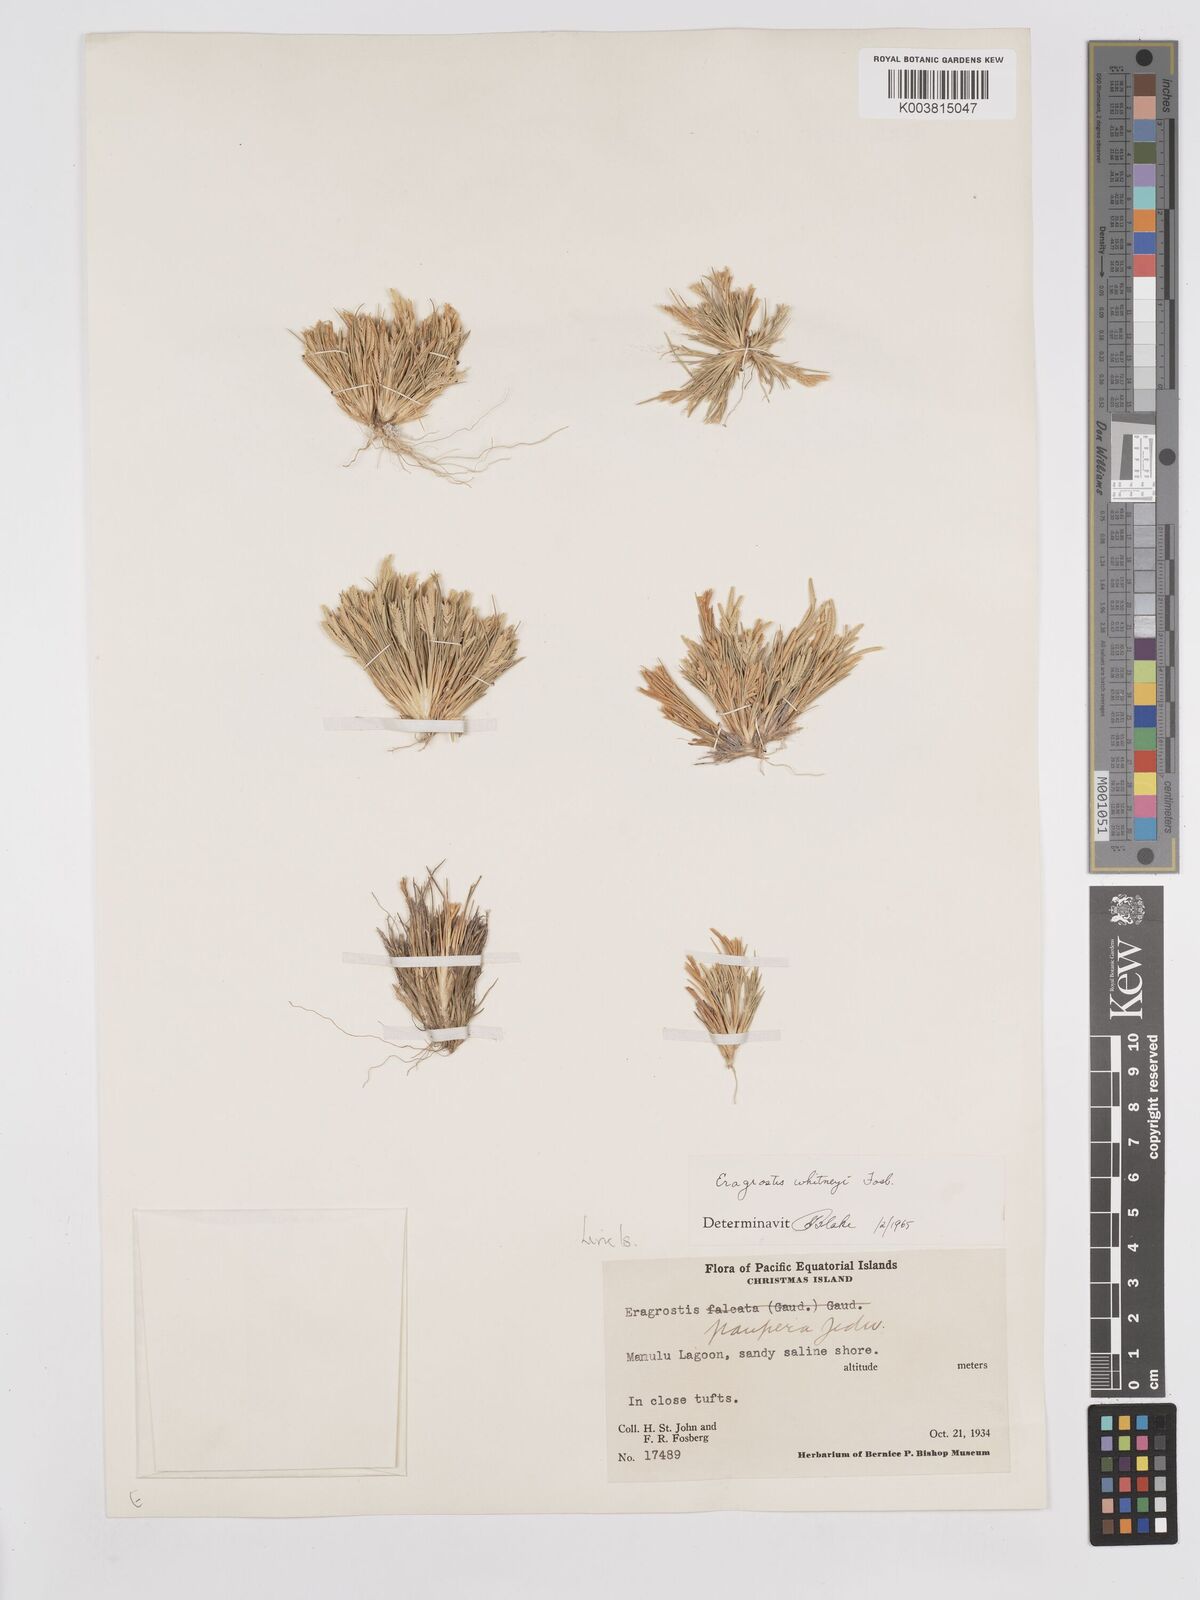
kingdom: Plantae
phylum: Tracheophyta
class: Liliopsida
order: Poales
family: Poaceae
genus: Eragrostis
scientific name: Eragrostis paupera
